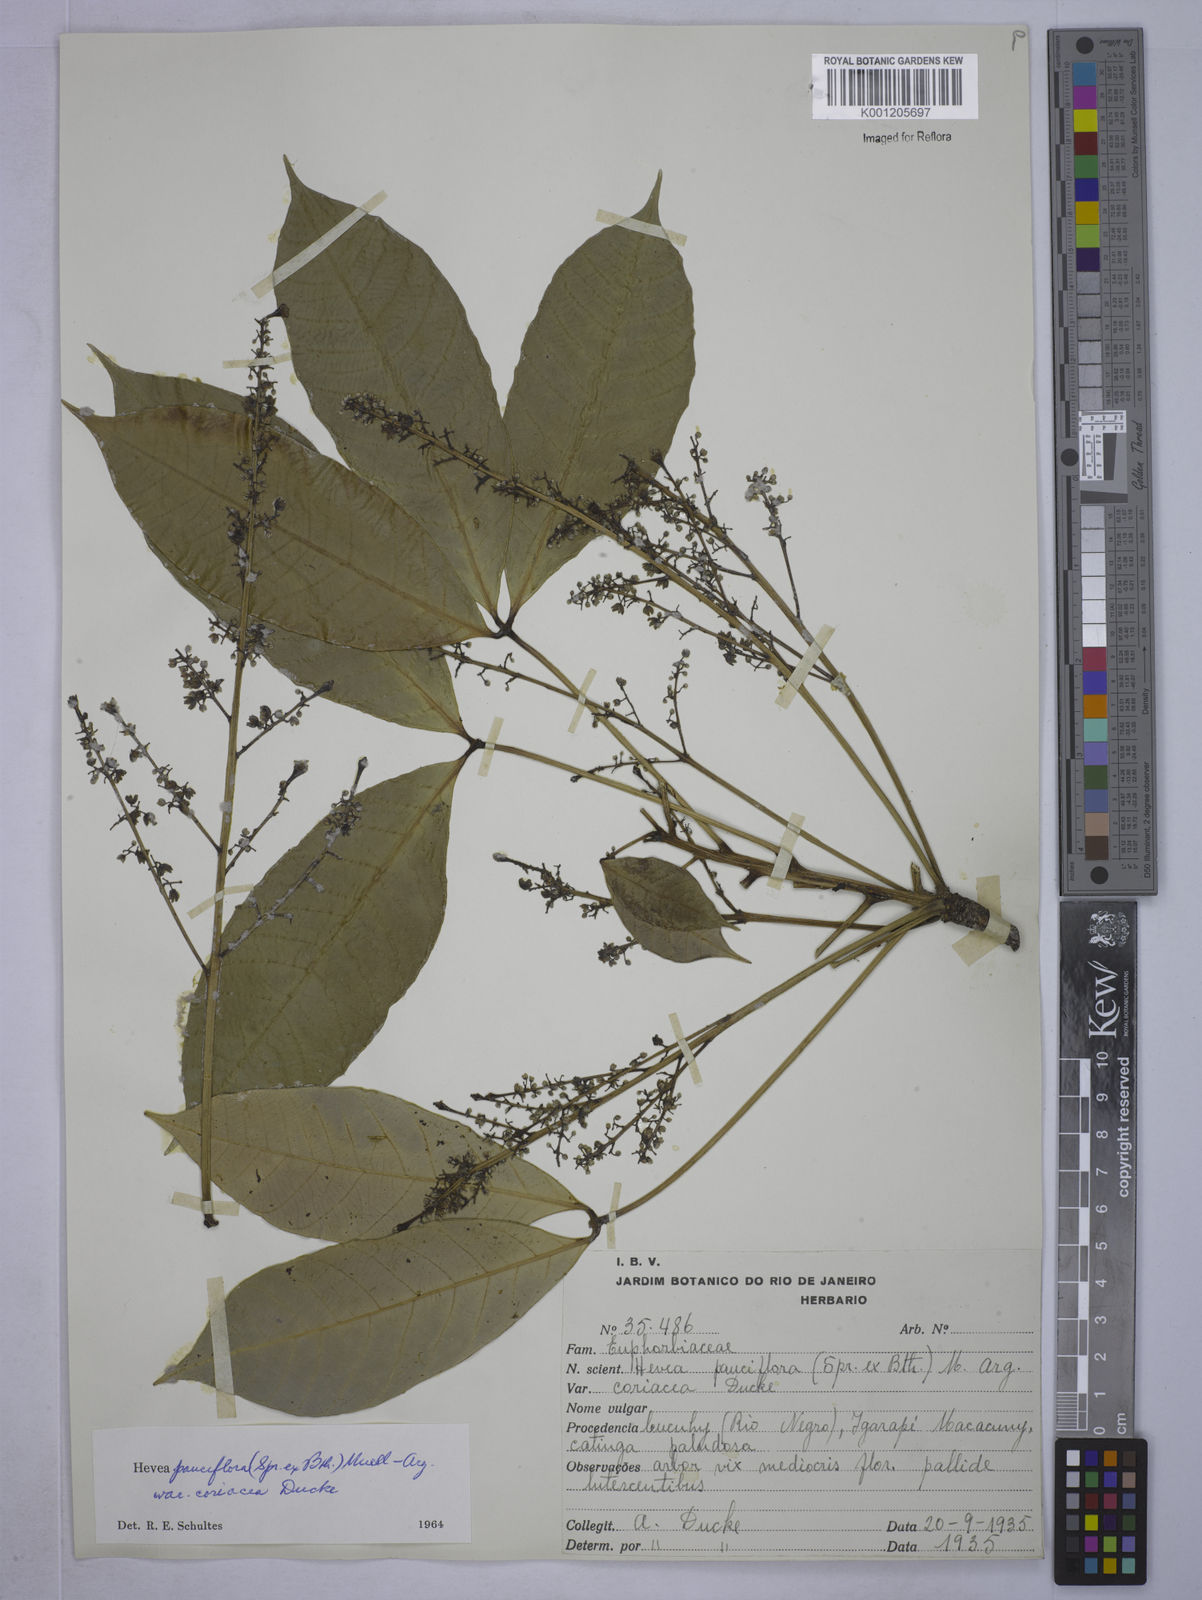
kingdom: Plantae
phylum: Tracheophyta
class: Magnoliopsida
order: Malpighiales
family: Euphorbiaceae
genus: Hevea
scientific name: Hevea pauciflora
